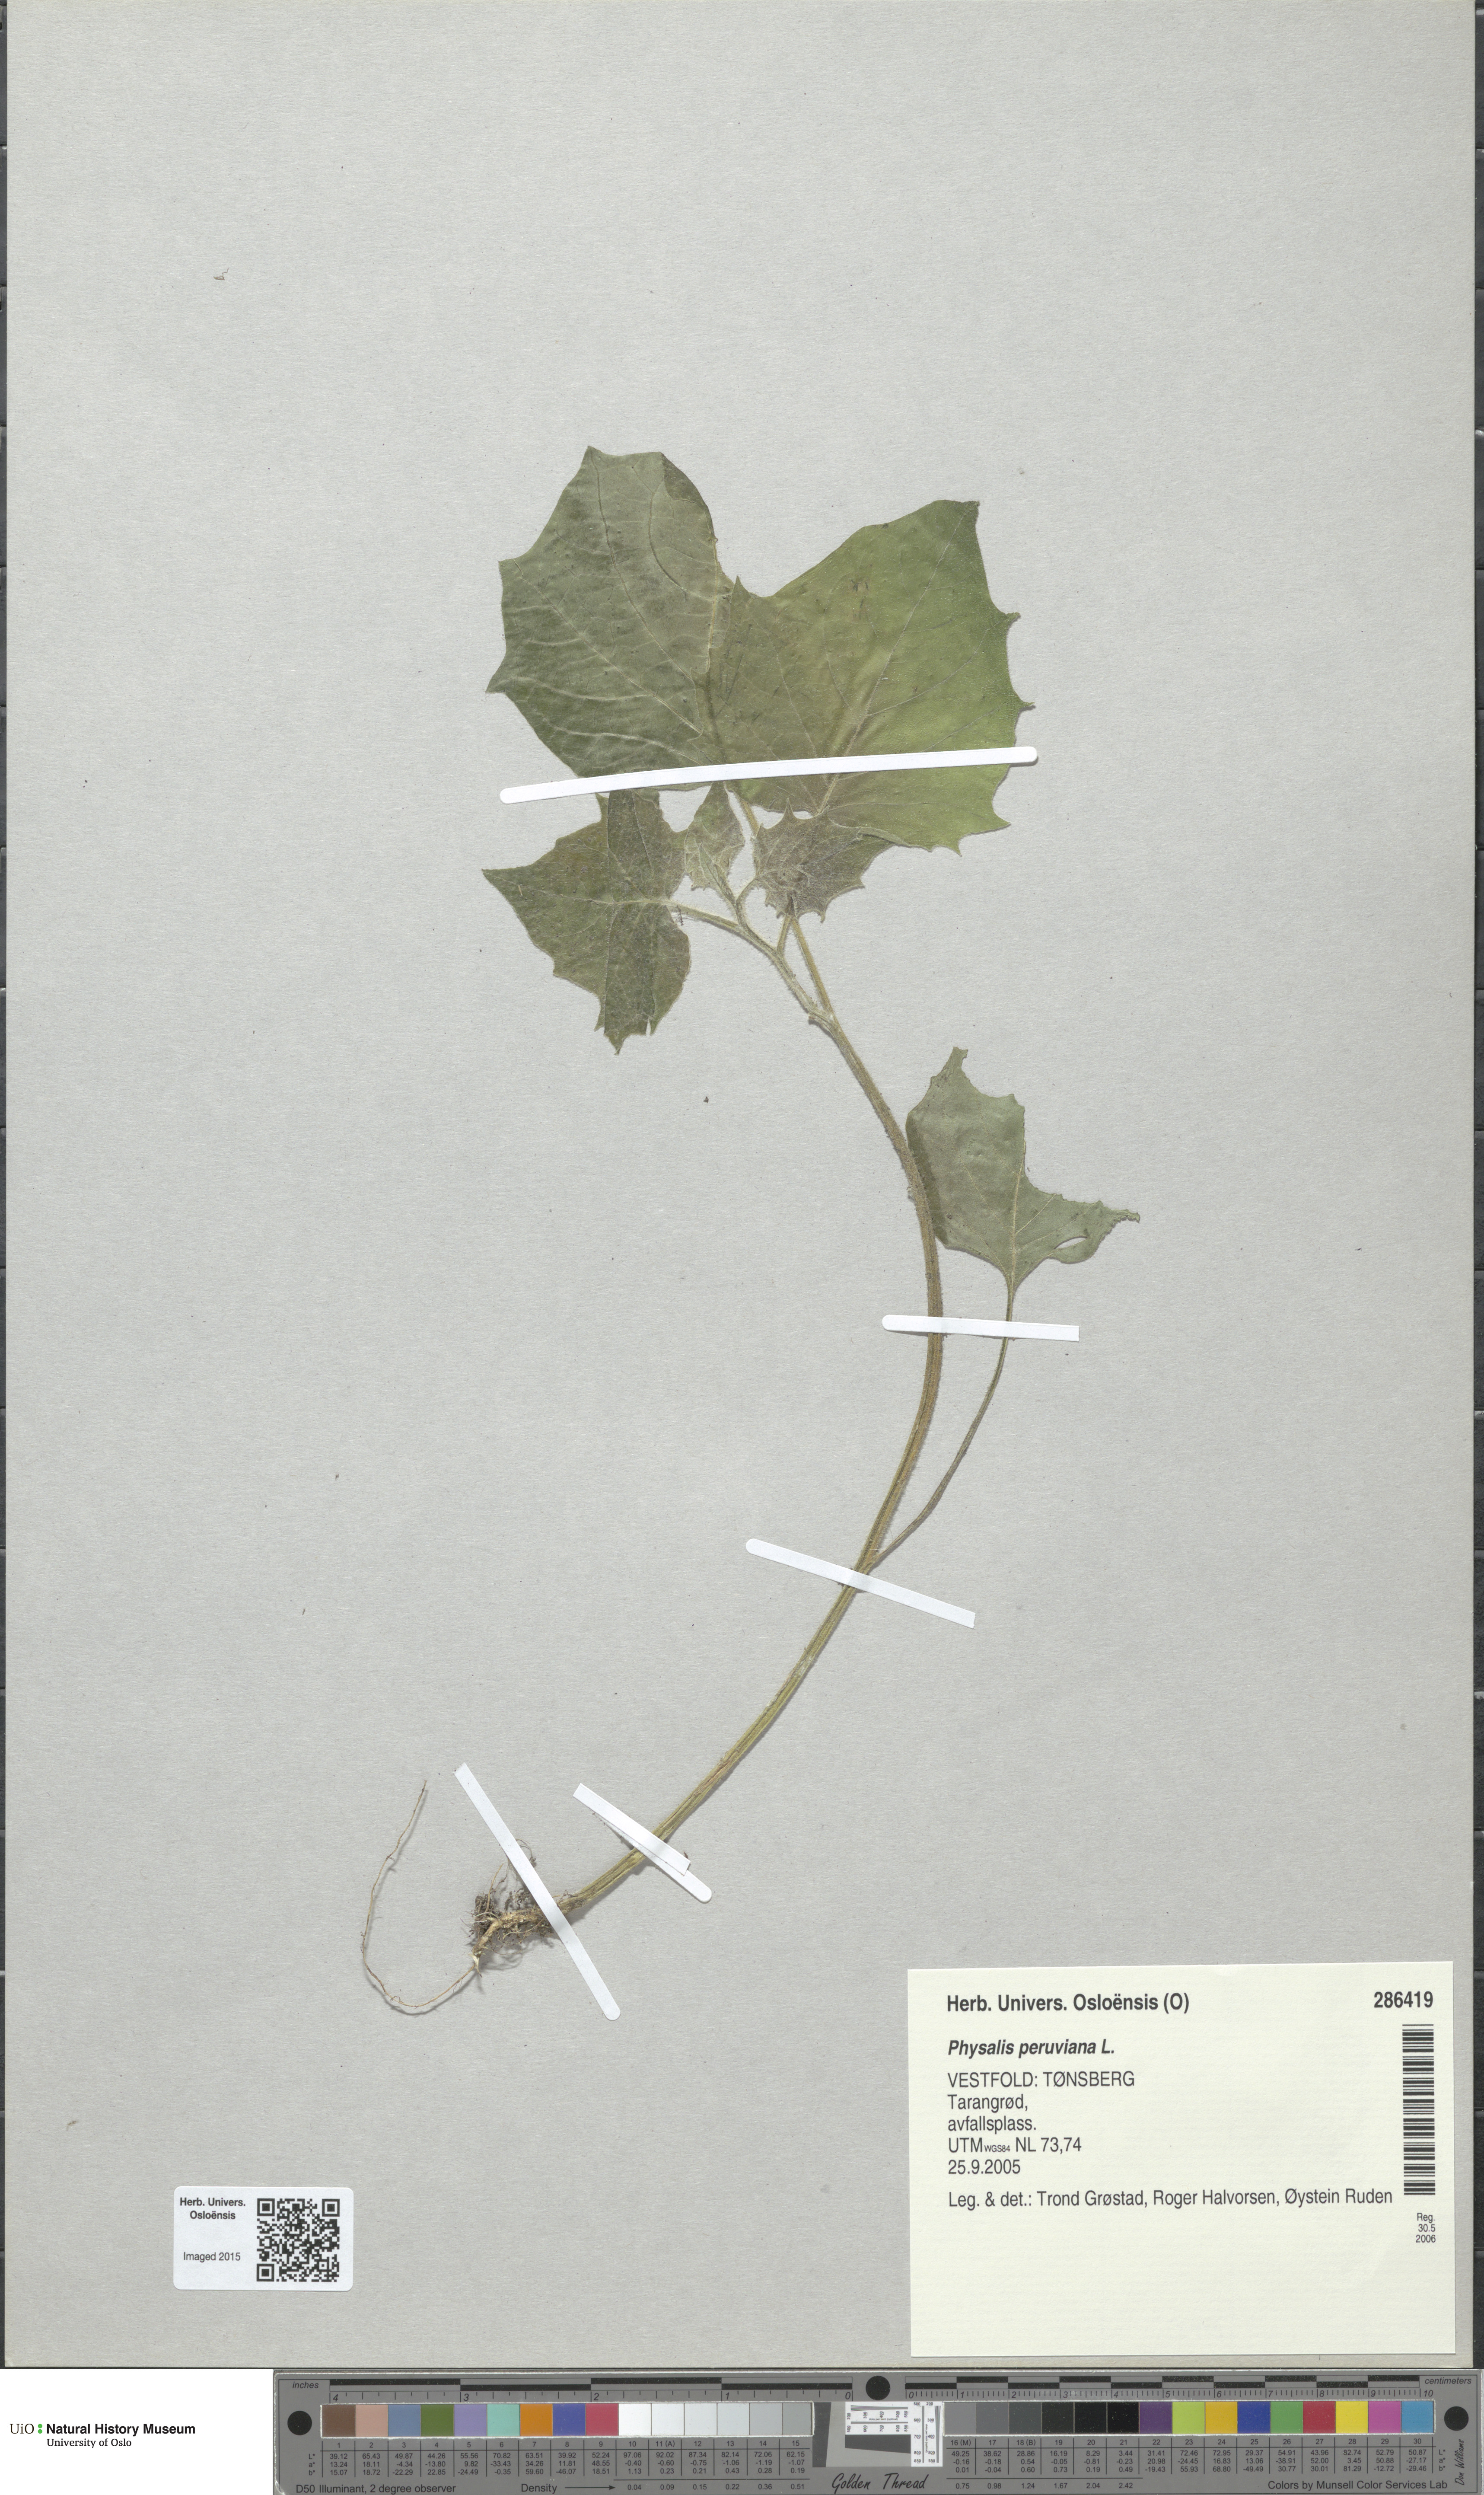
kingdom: Plantae
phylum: Tracheophyta
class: Magnoliopsida
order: Solanales
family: Solanaceae
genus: Physalis
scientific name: Physalis peruviana
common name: Cape-gooseberry
